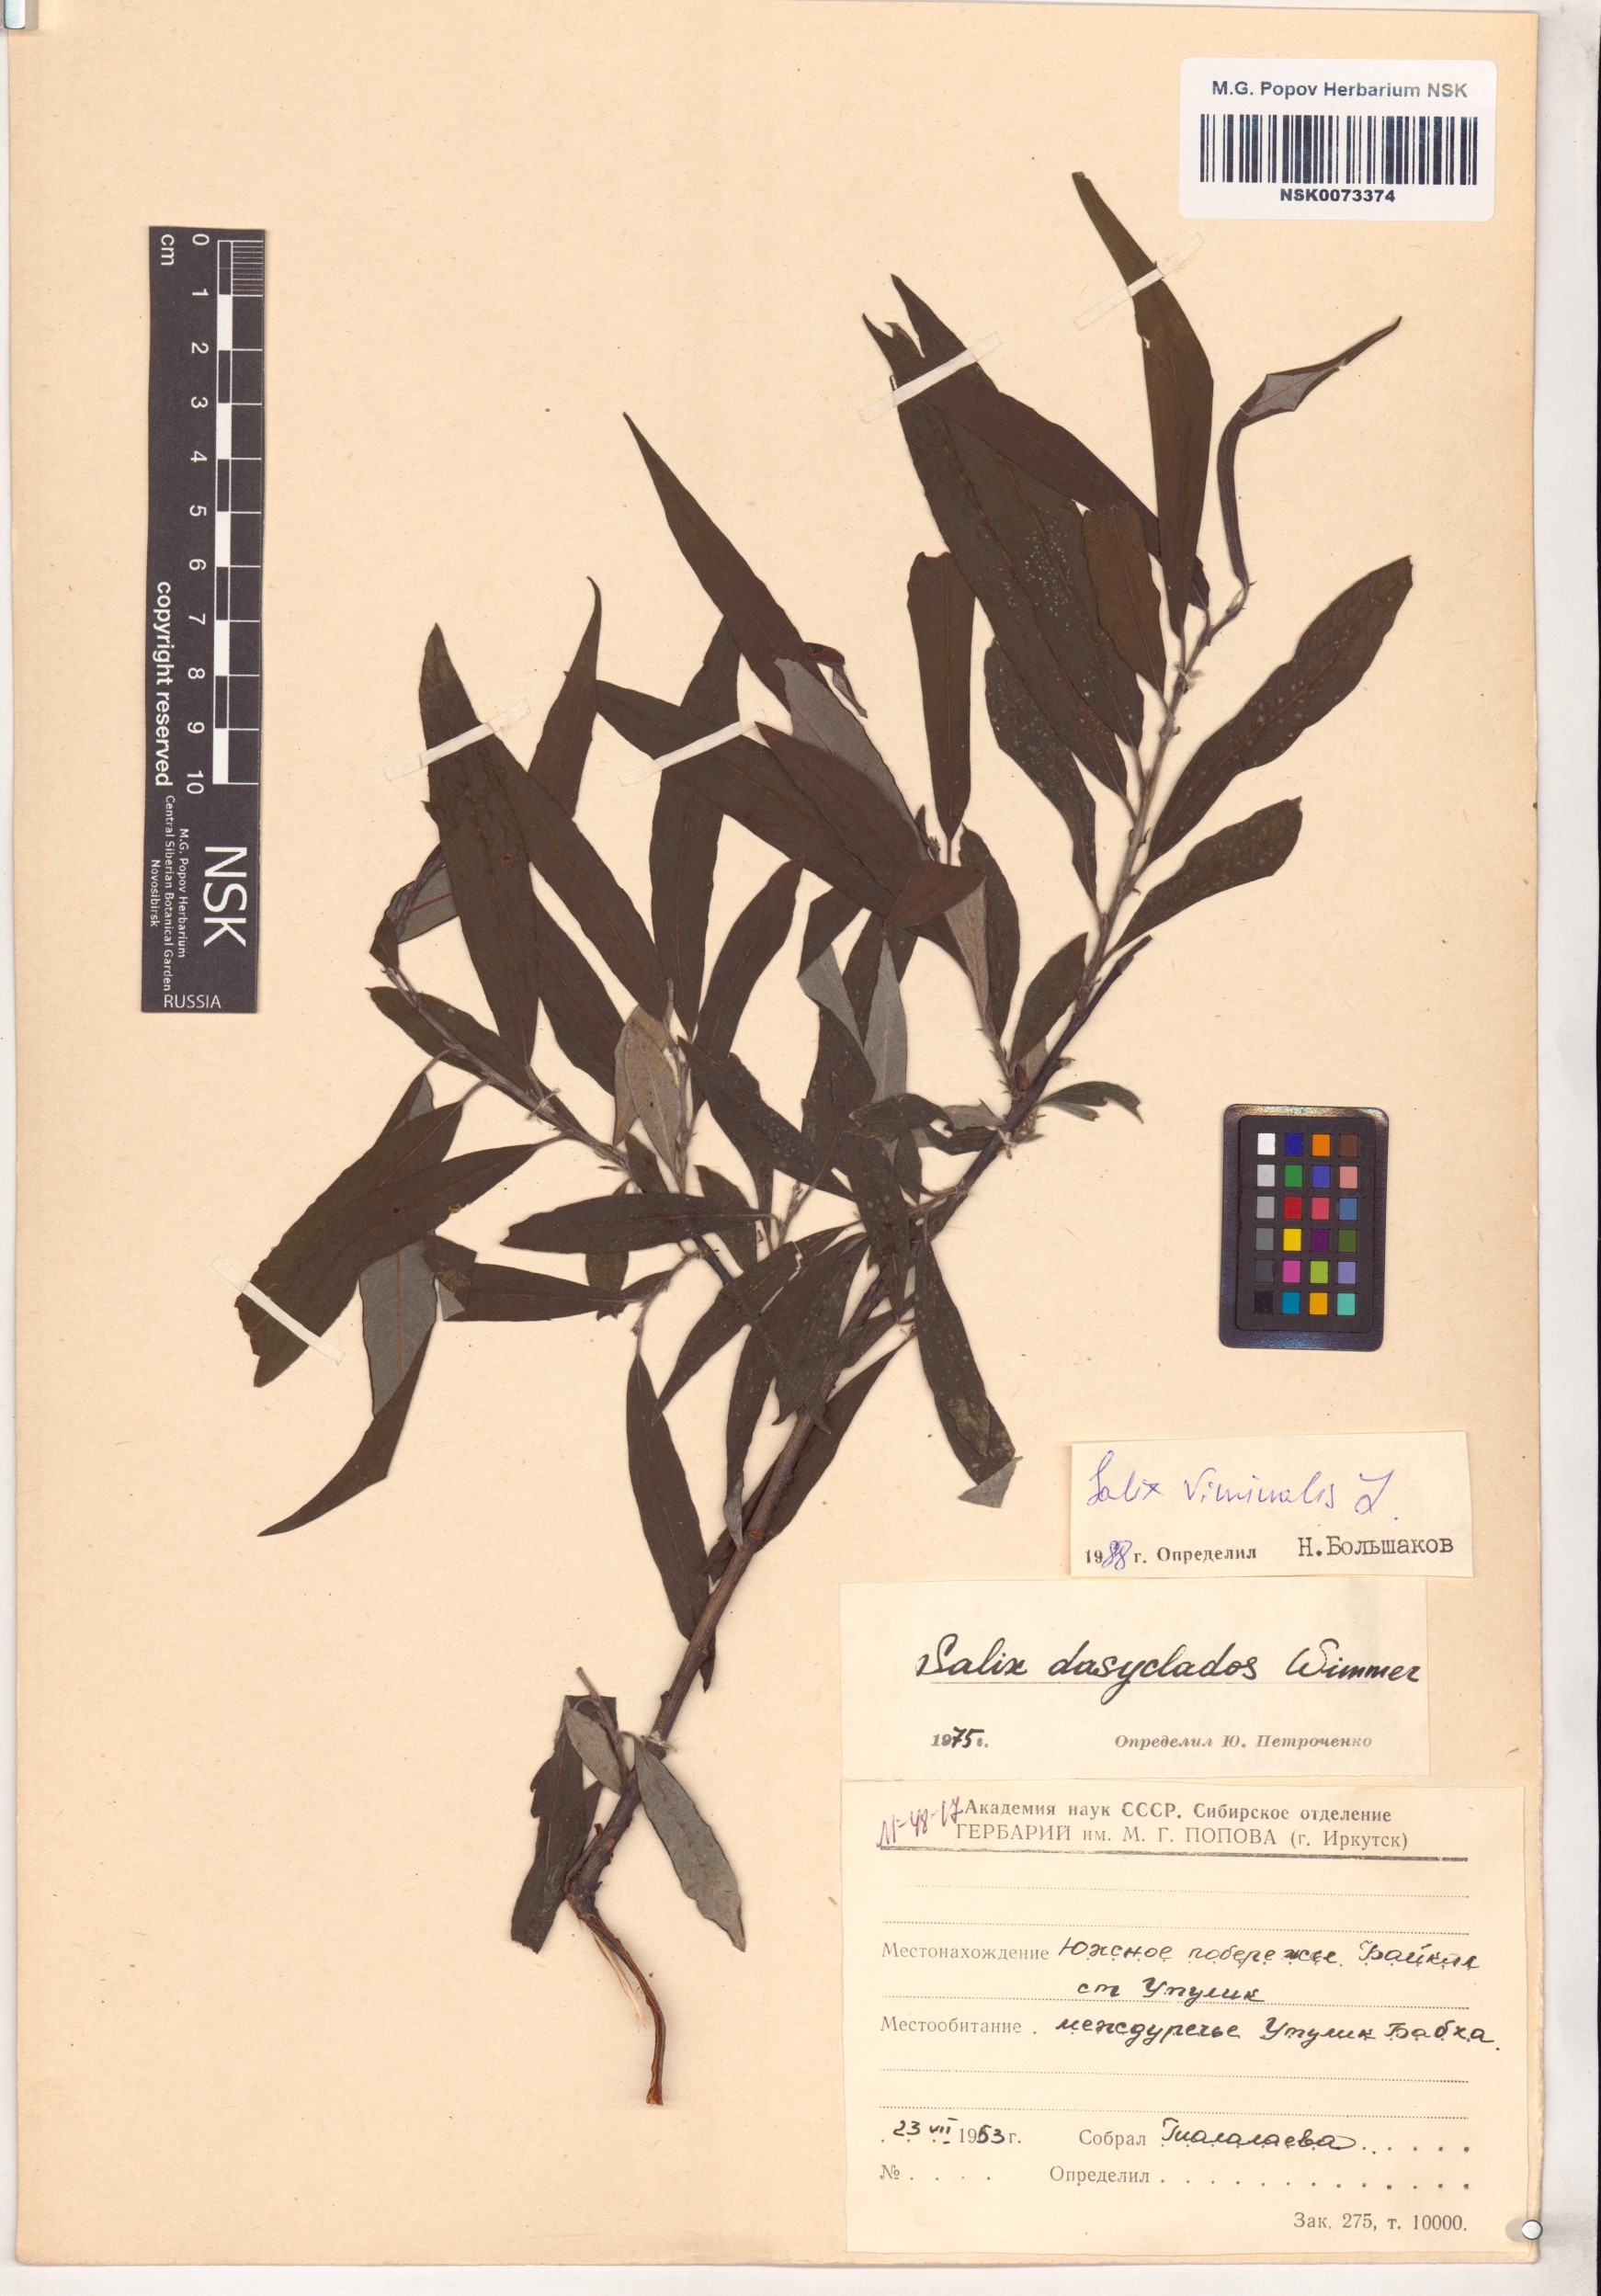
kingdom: Plantae
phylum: Tracheophyta
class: Magnoliopsida
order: Malpighiales
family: Salicaceae
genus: Salix
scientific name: Salix viminalis
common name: Osier
